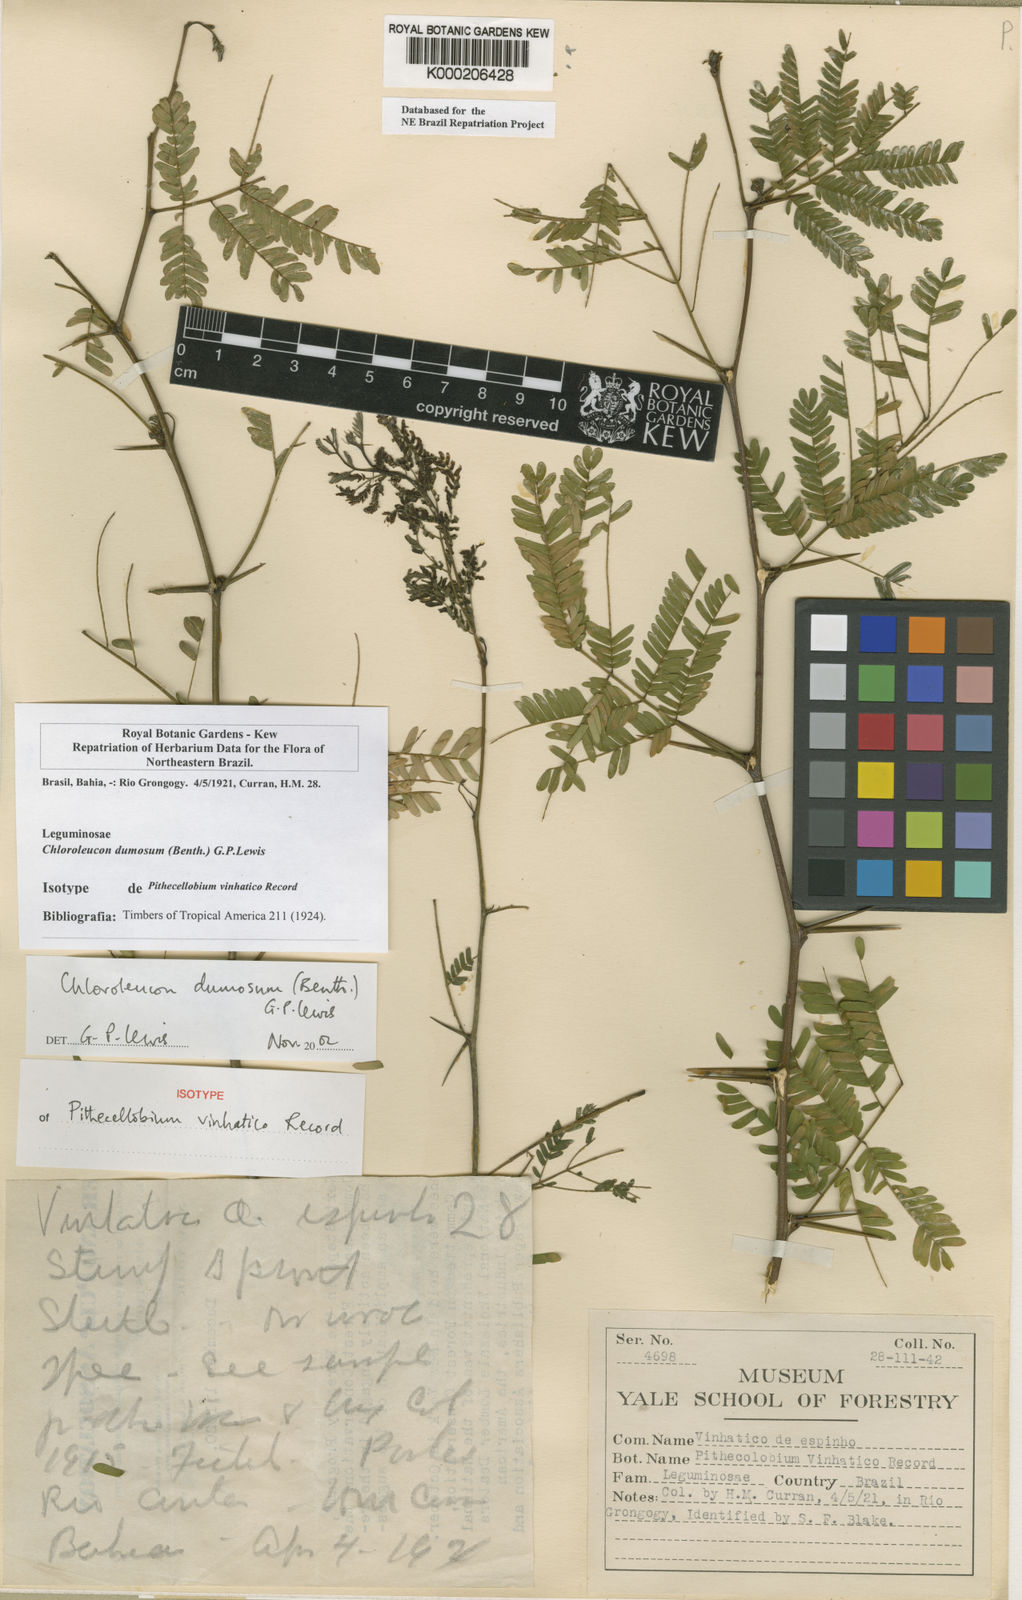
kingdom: Plantae
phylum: Tracheophyta
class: Magnoliopsida
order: Fabales
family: Fabaceae
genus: Chloroleucon
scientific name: Chloroleucon dumosum
